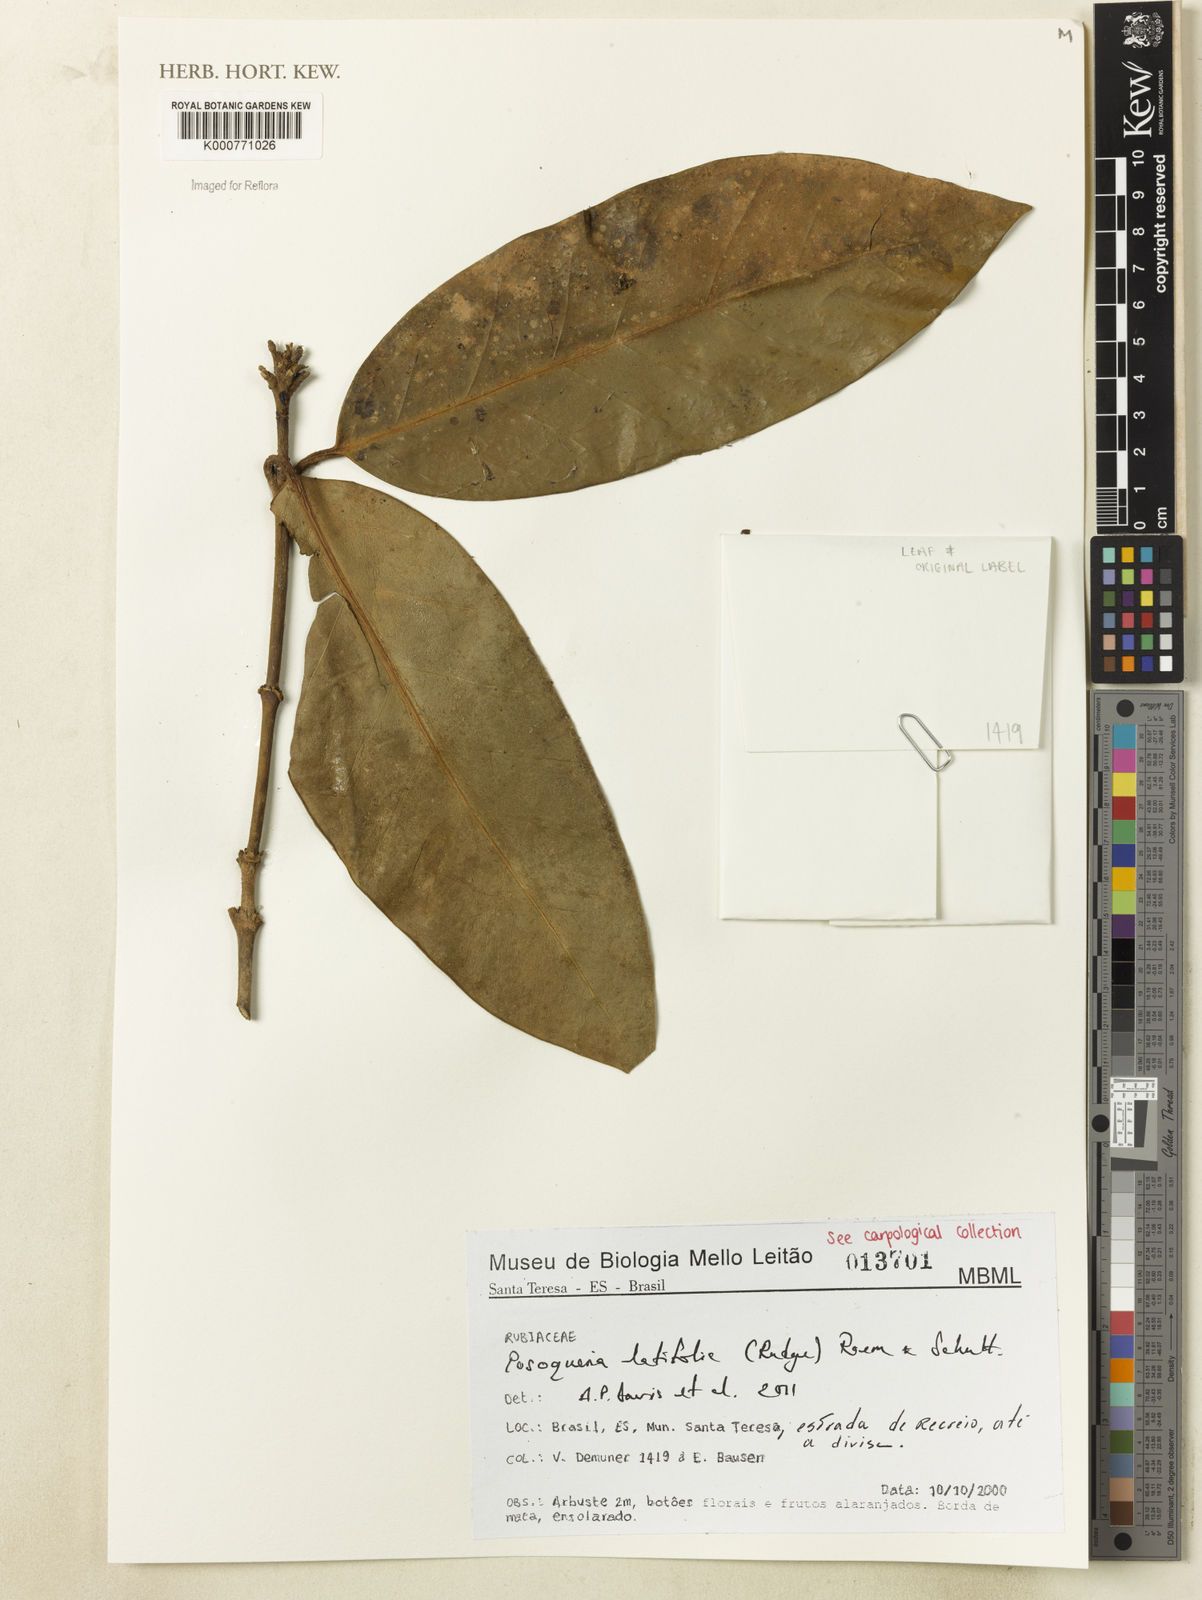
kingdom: Plantae
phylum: Tracheophyta
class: Magnoliopsida
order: Gentianales
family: Rubiaceae
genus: Posoqueria
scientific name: Posoqueria latifolia
